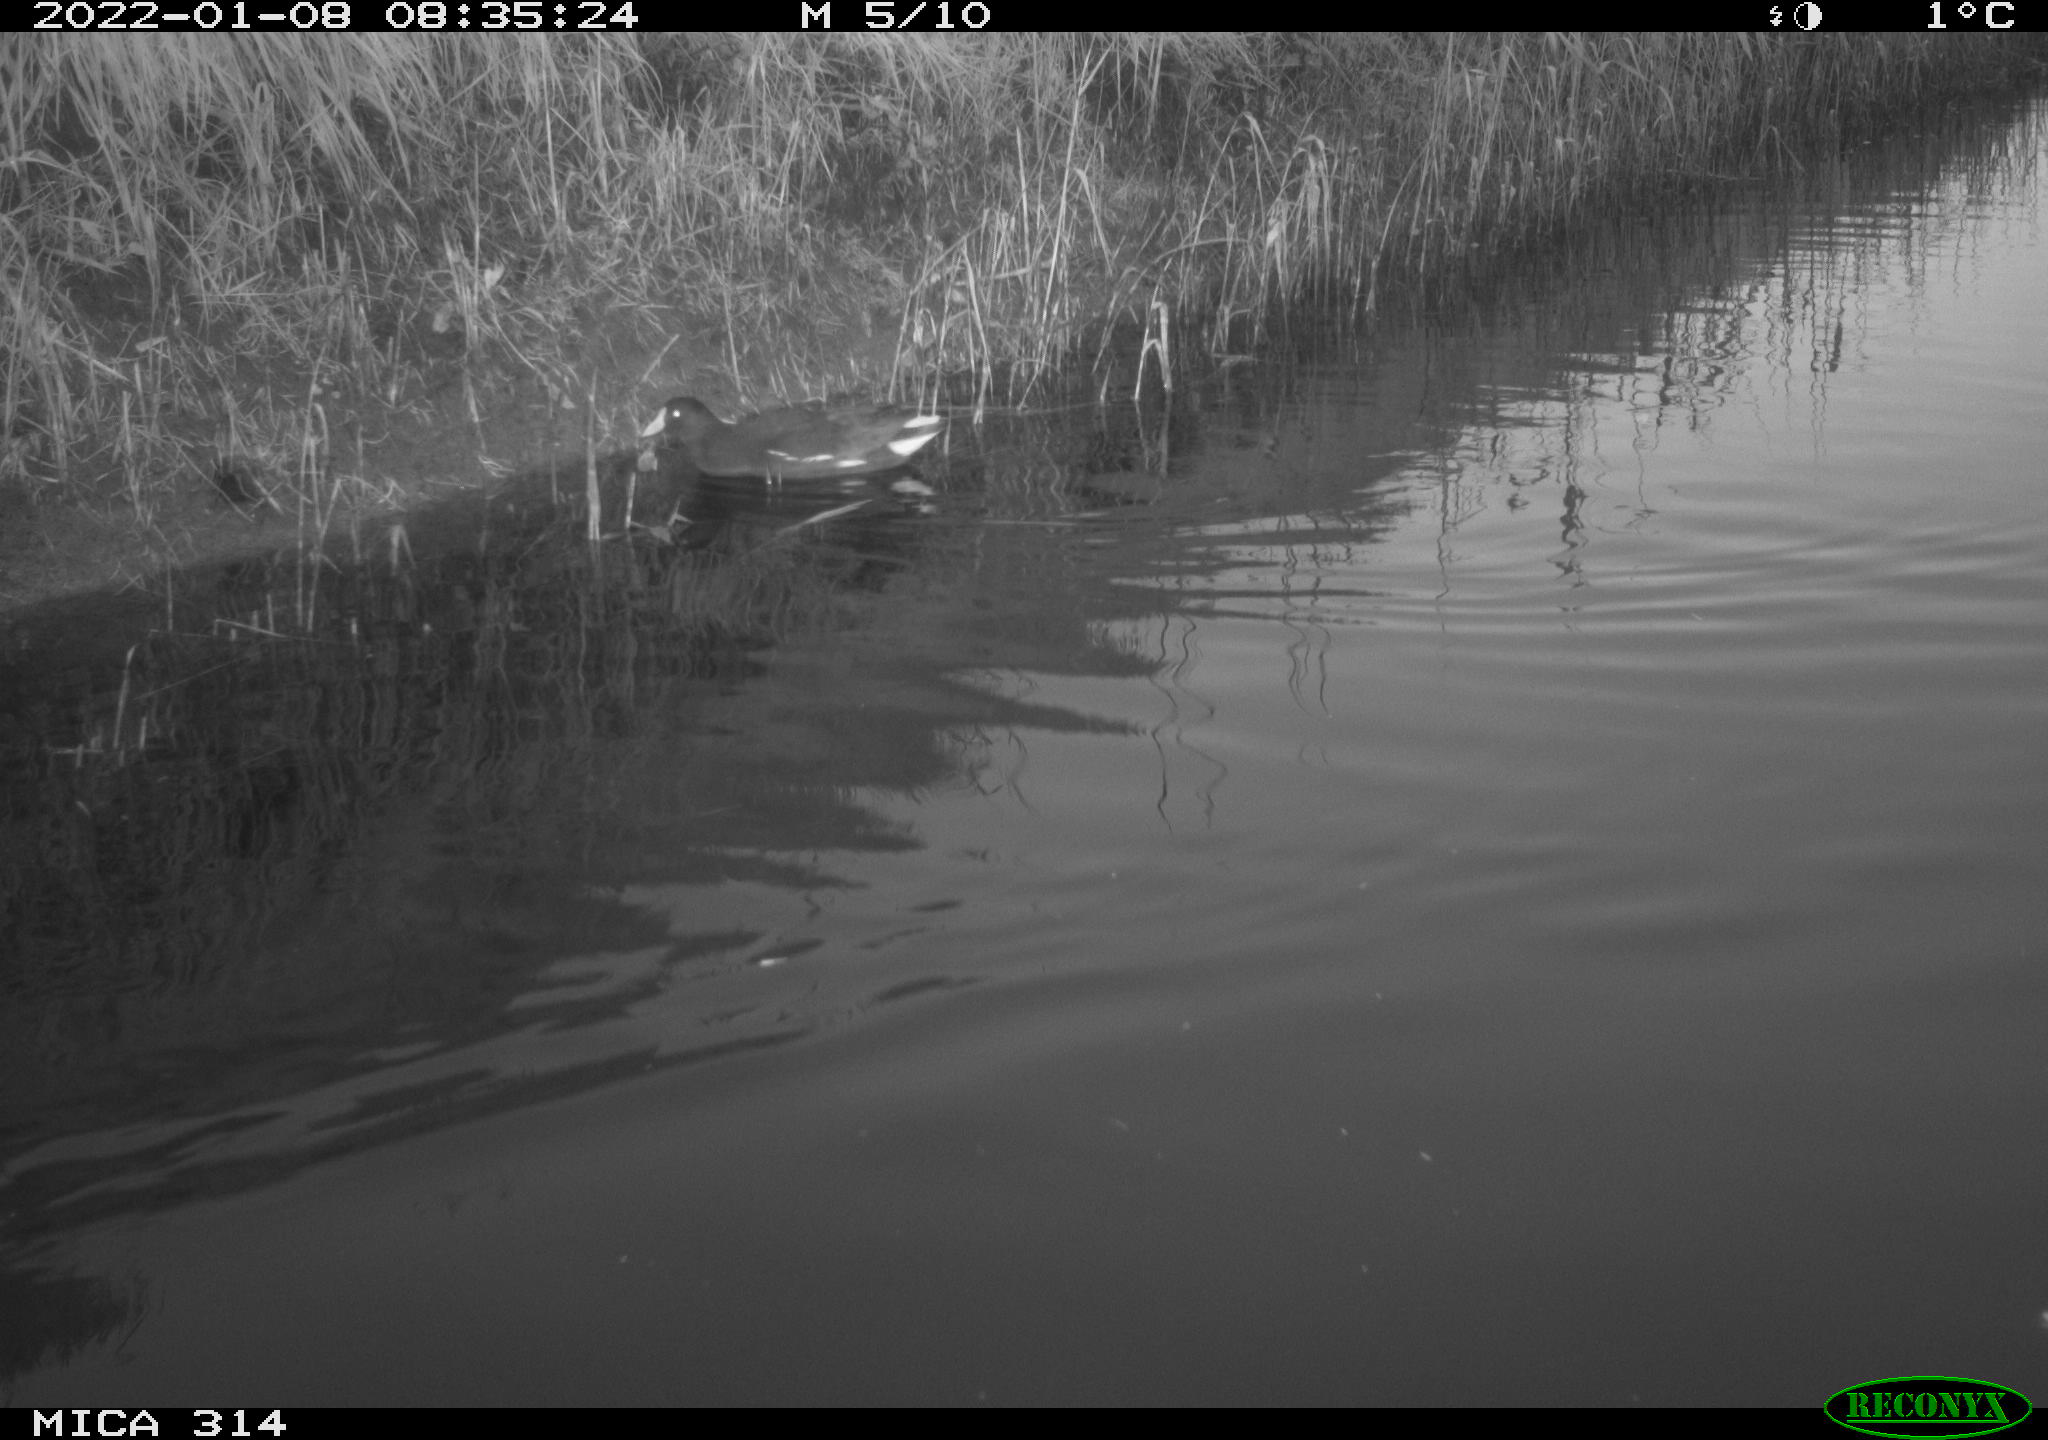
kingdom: Animalia
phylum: Chordata
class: Aves
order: Gruiformes
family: Rallidae
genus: Gallinula
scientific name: Gallinula chloropus
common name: Common moorhen
